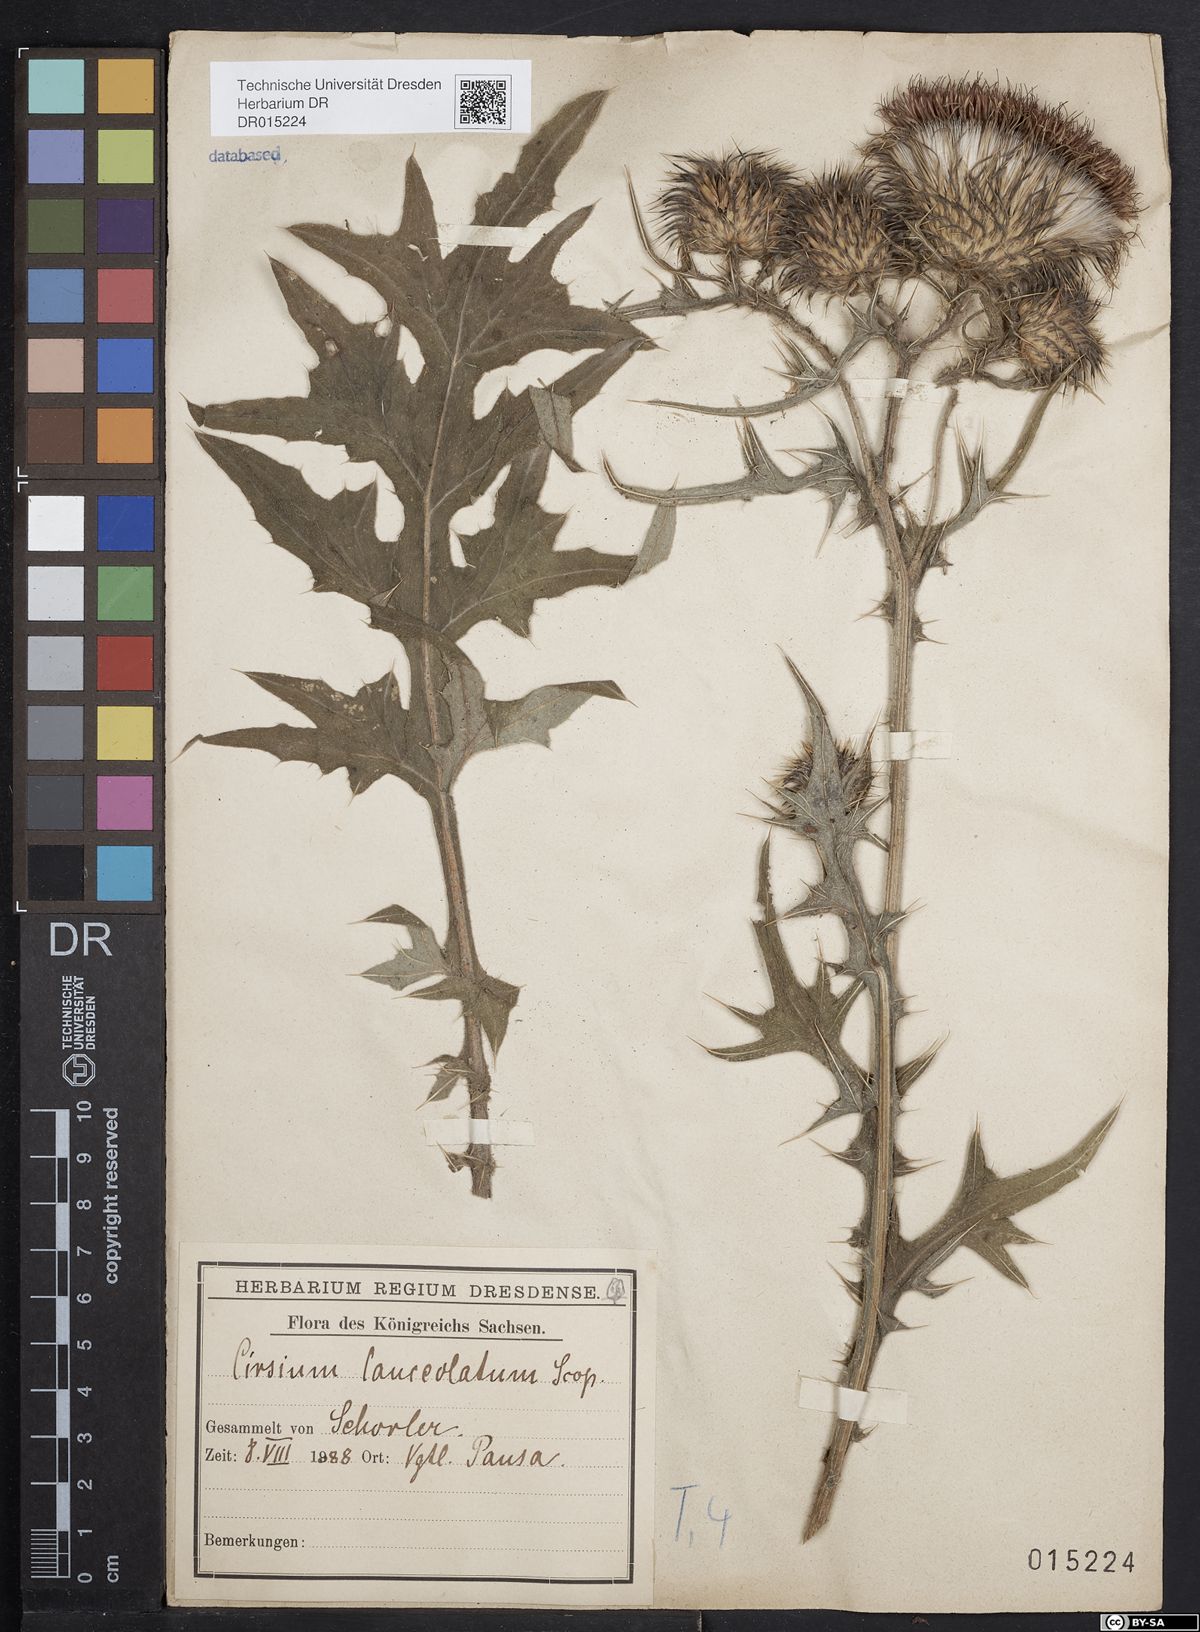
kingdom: Plantae
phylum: Tracheophyta
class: Magnoliopsida
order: Asterales
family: Asteraceae
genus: Cirsium
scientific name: Cirsium vulgare
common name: Bull thistle
